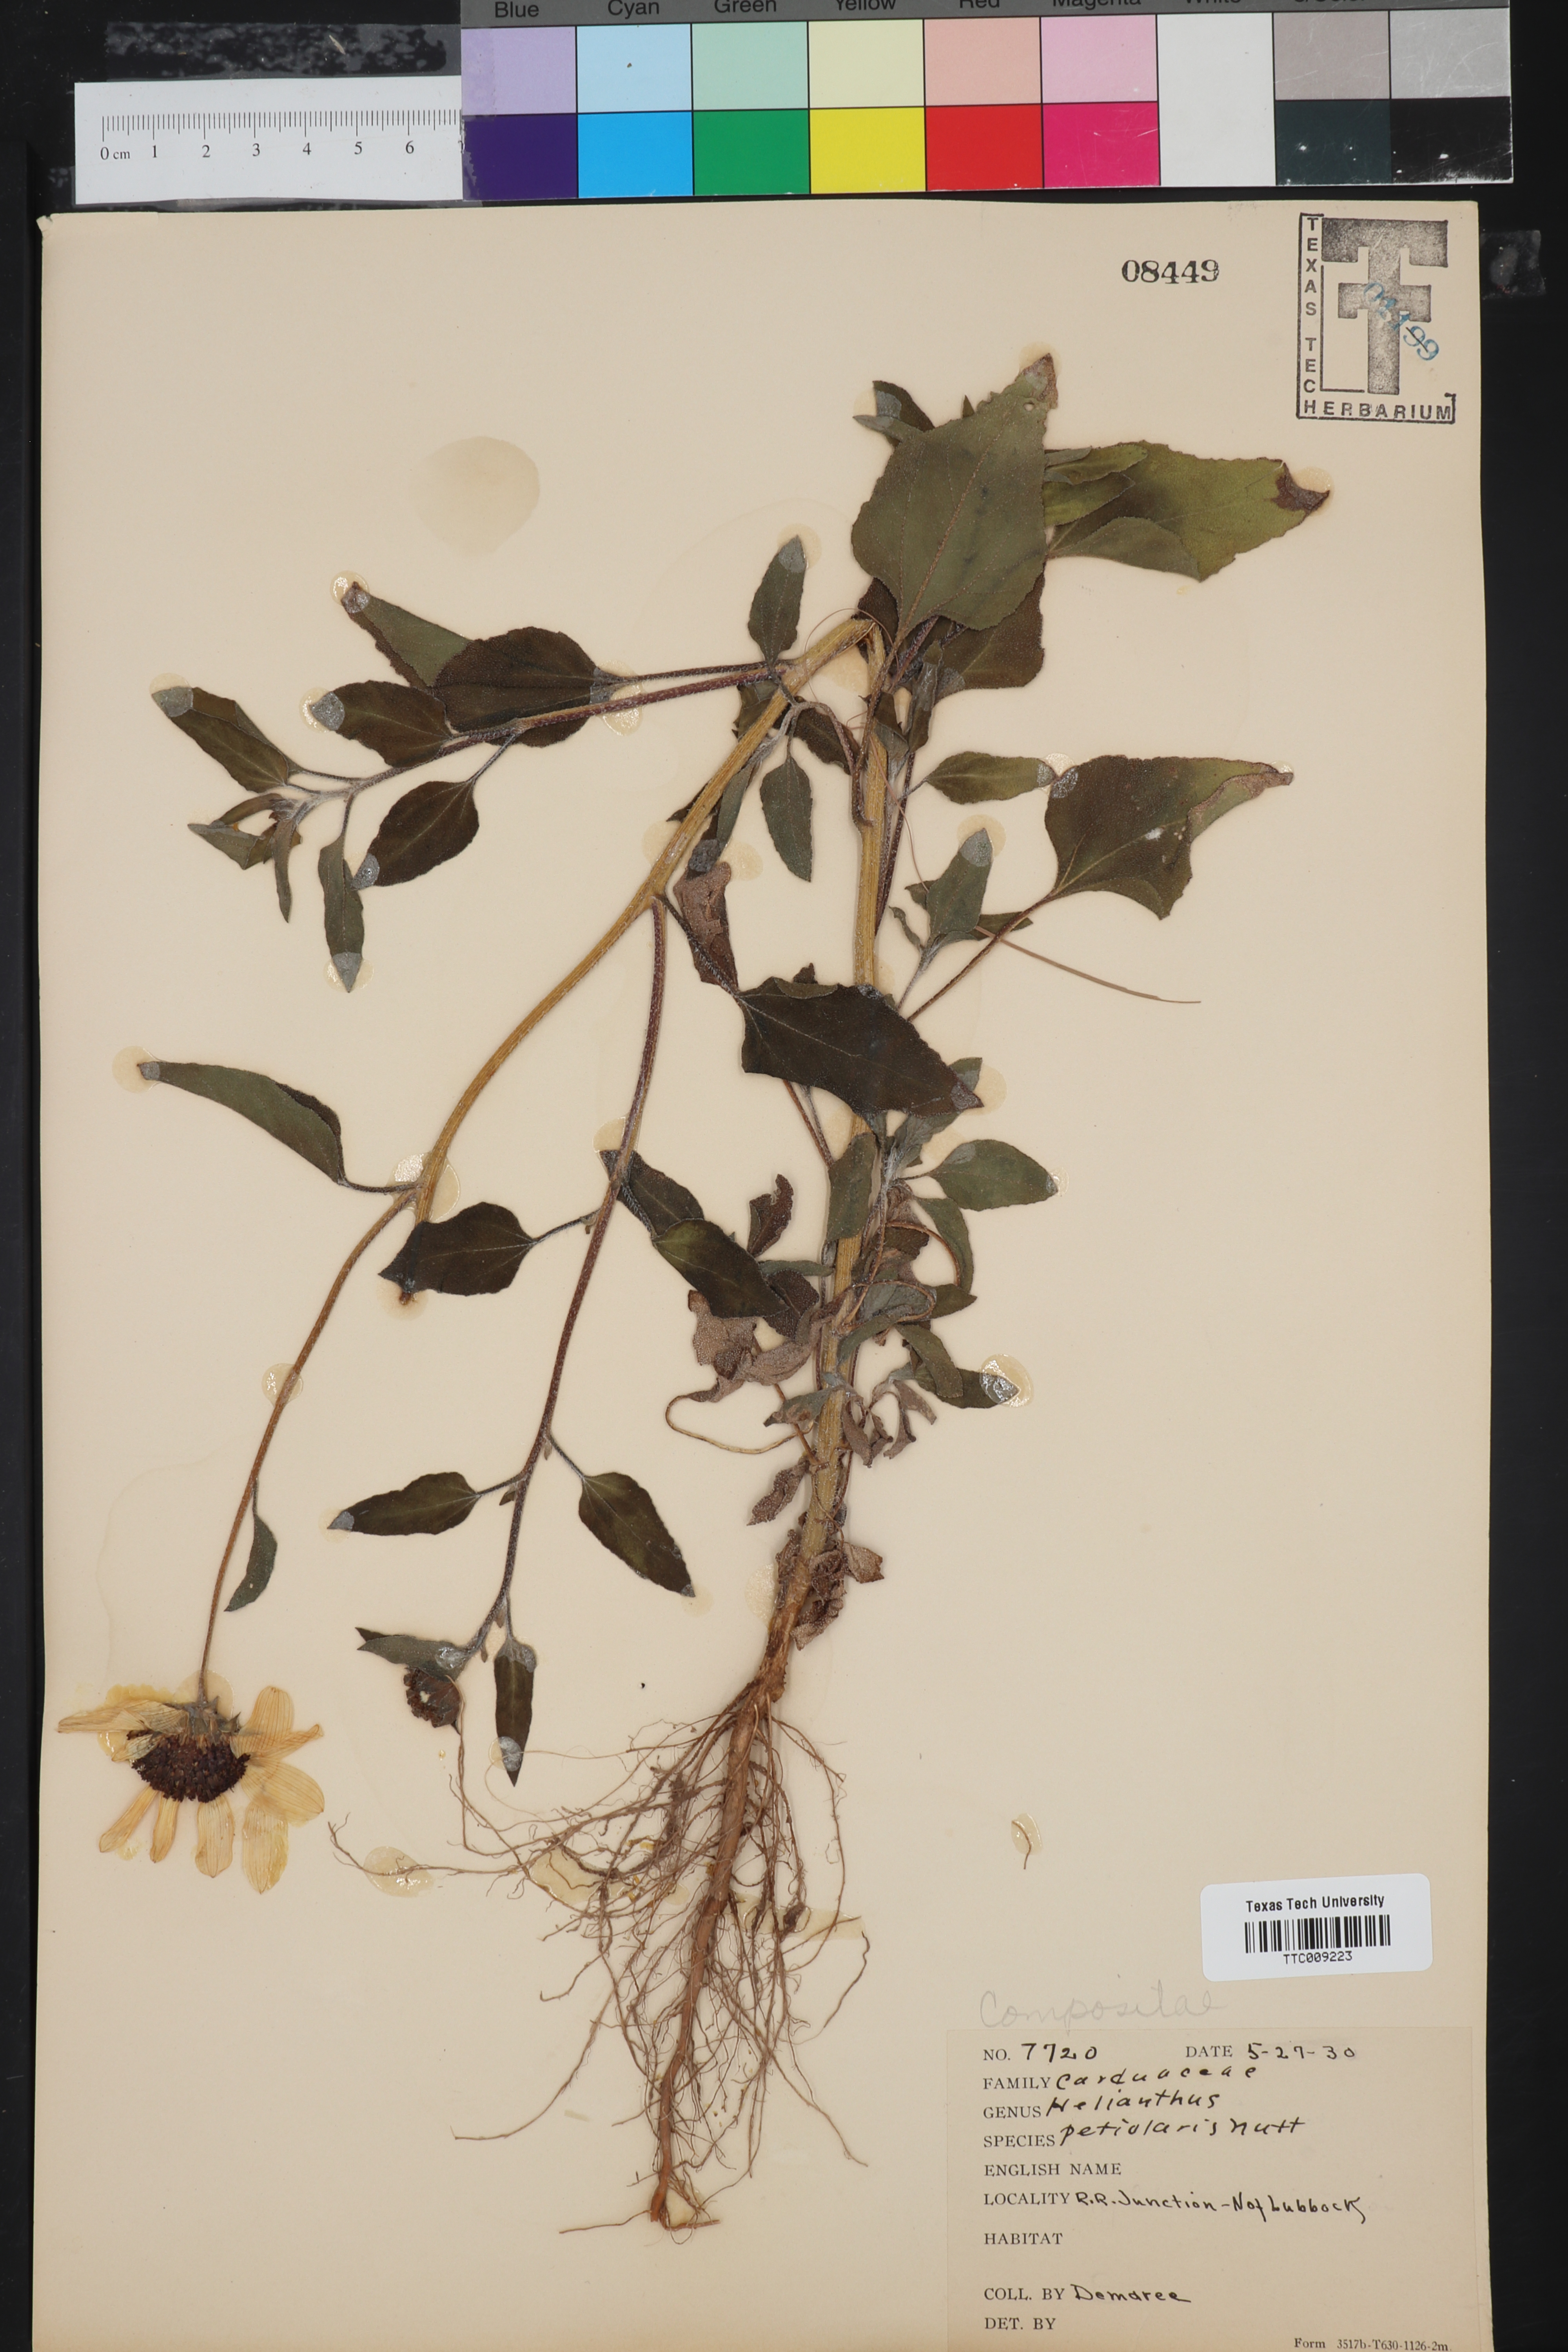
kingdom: Plantae
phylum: Tracheophyta
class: Magnoliopsida
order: Asterales
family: Asteraceae
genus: Helianthus
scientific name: Helianthus petiolaris
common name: Lesser sunflower
